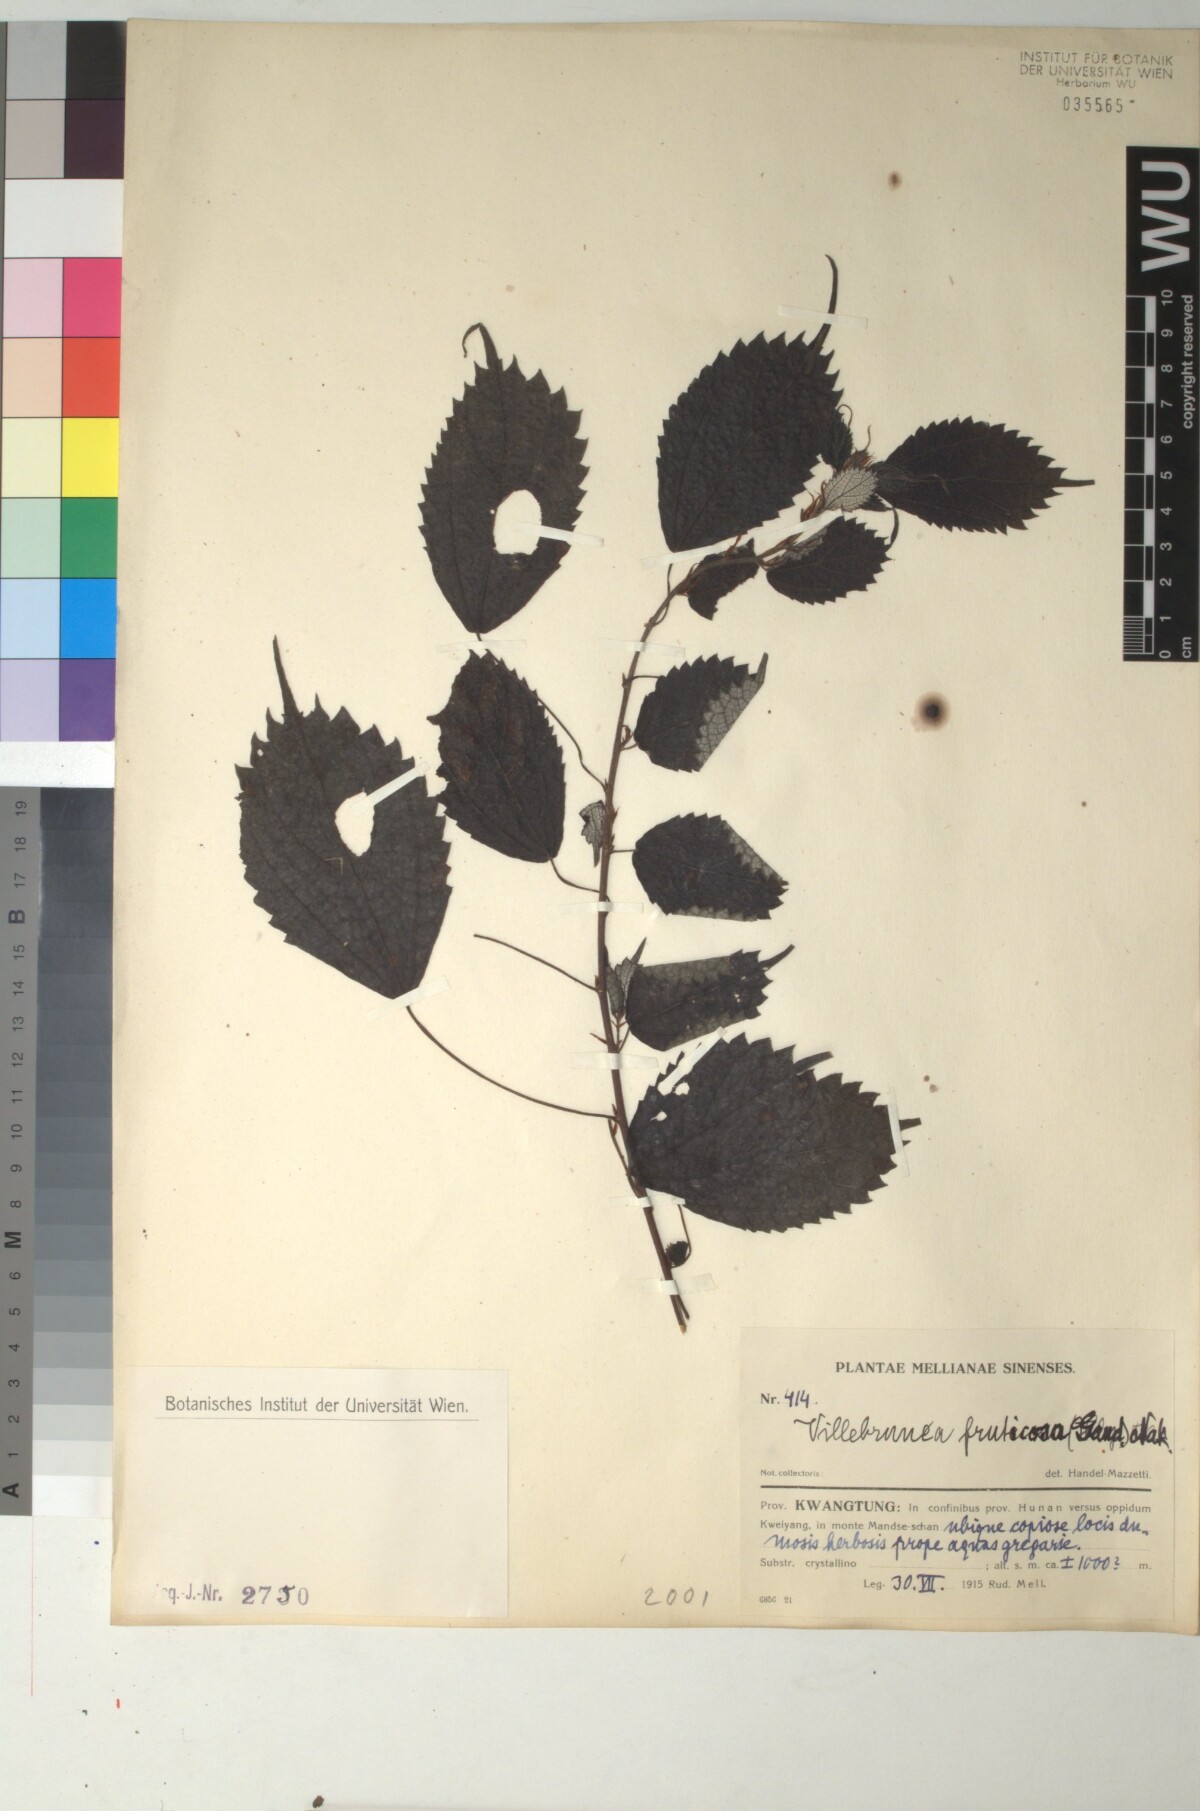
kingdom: Plantae
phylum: Tracheophyta
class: Magnoliopsida
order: Rosales
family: Urticaceae
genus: Oreocnide
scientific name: Oreocnide frutescens
